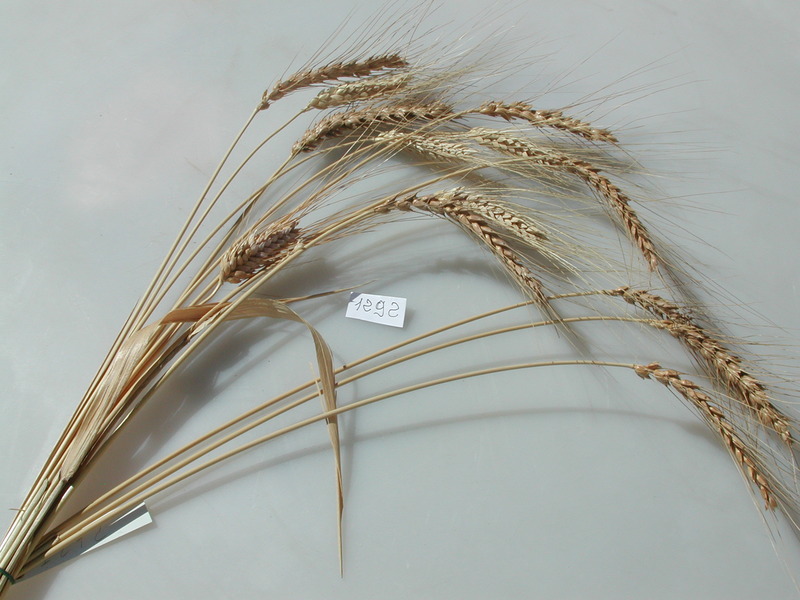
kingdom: Plantae
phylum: Tracheophyta
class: Liliopsida
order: Poales
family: Poaceae
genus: Triticum
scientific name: Triticum turgidum
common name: Wheat
